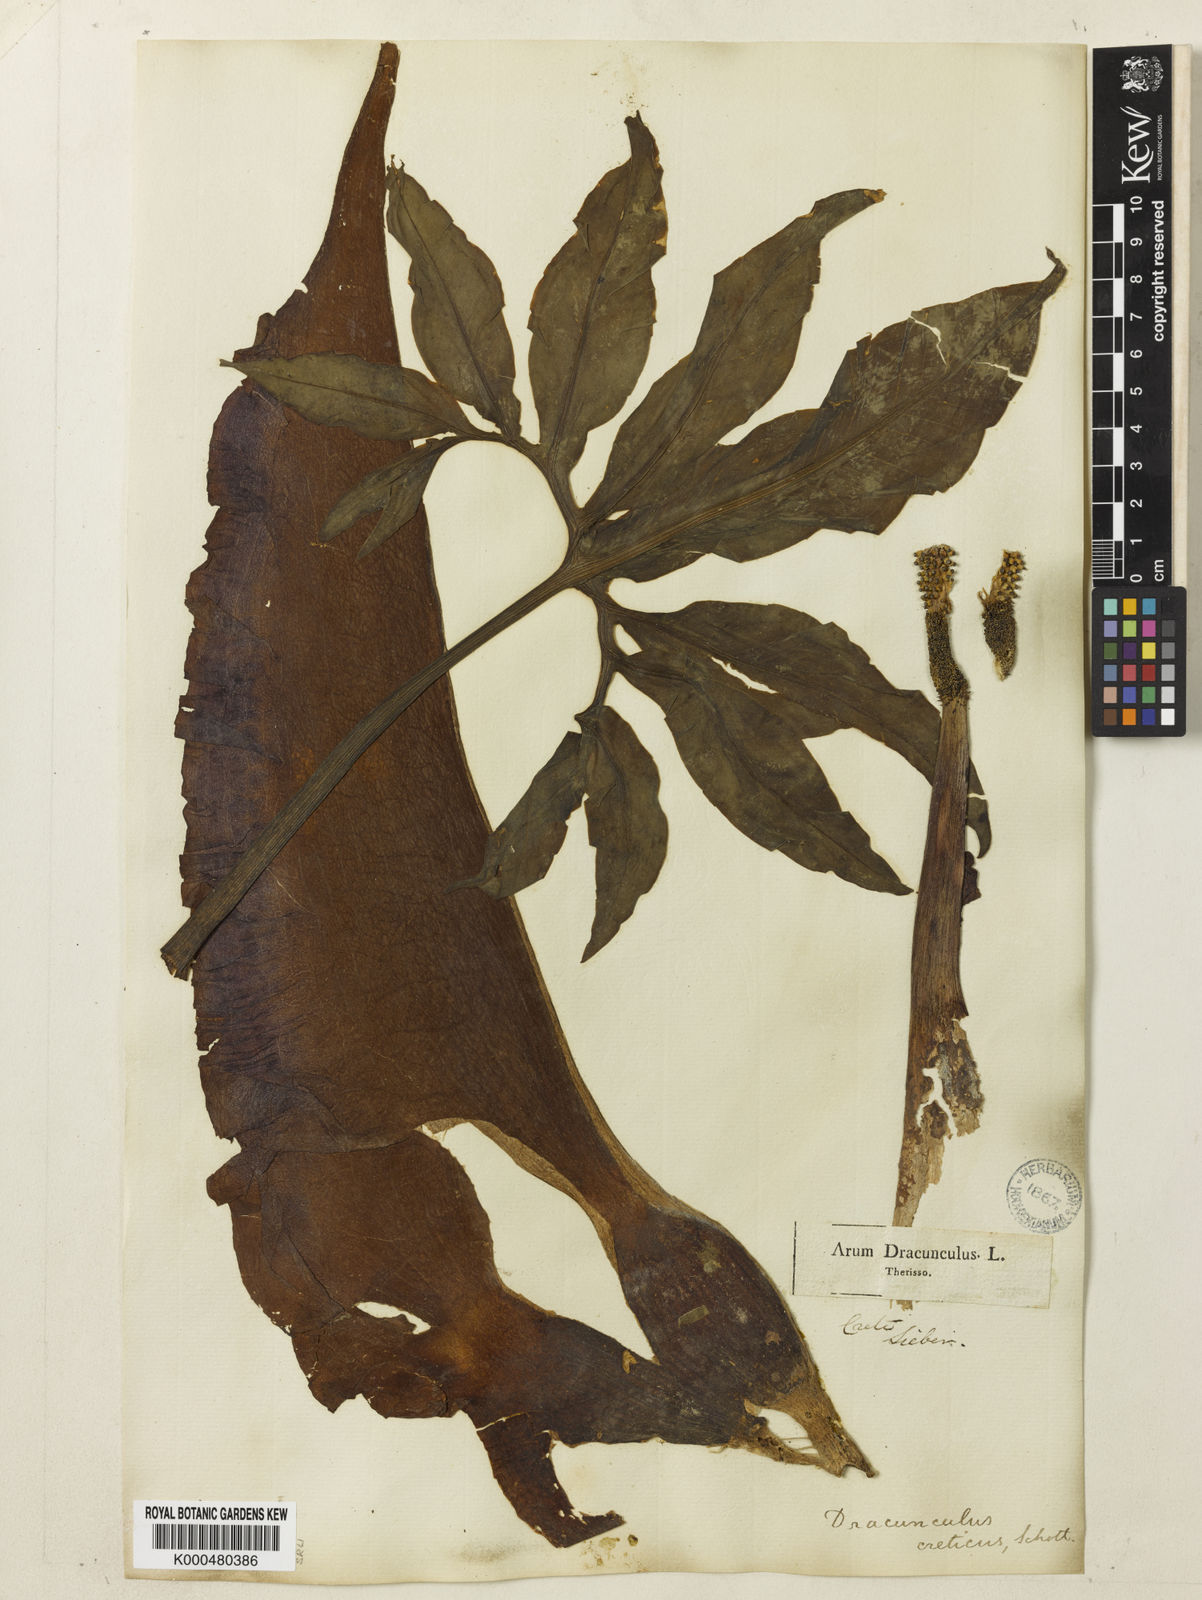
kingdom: Plantae
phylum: Tracheophyta
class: Liliopsida
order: Alismatales
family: Araceae
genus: Dracunculus
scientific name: Dracunculus vulgaris
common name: Dragon arum
